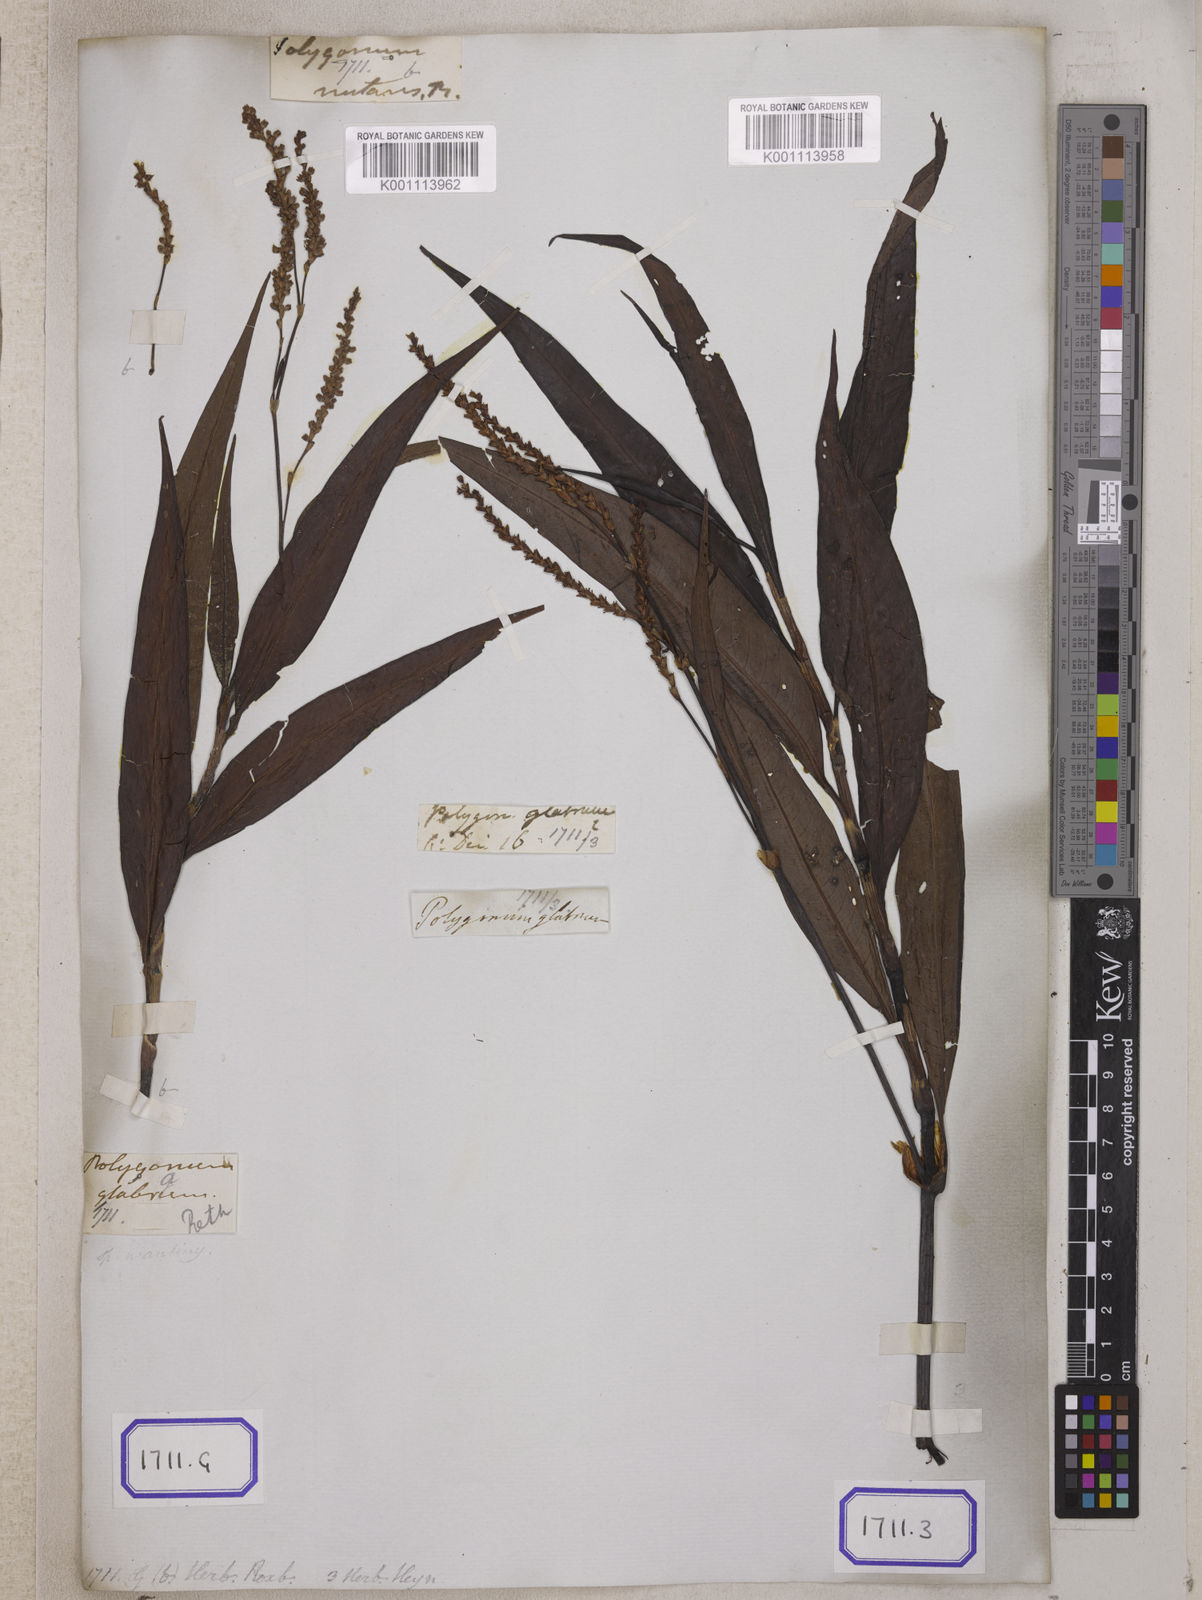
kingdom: Plantae
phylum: Tracheophyta
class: Magnoliopsida
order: Caryophyllales
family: Polygonaceae
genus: Persicaria
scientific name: Persicaria glabra
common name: Denseflower knotweed
